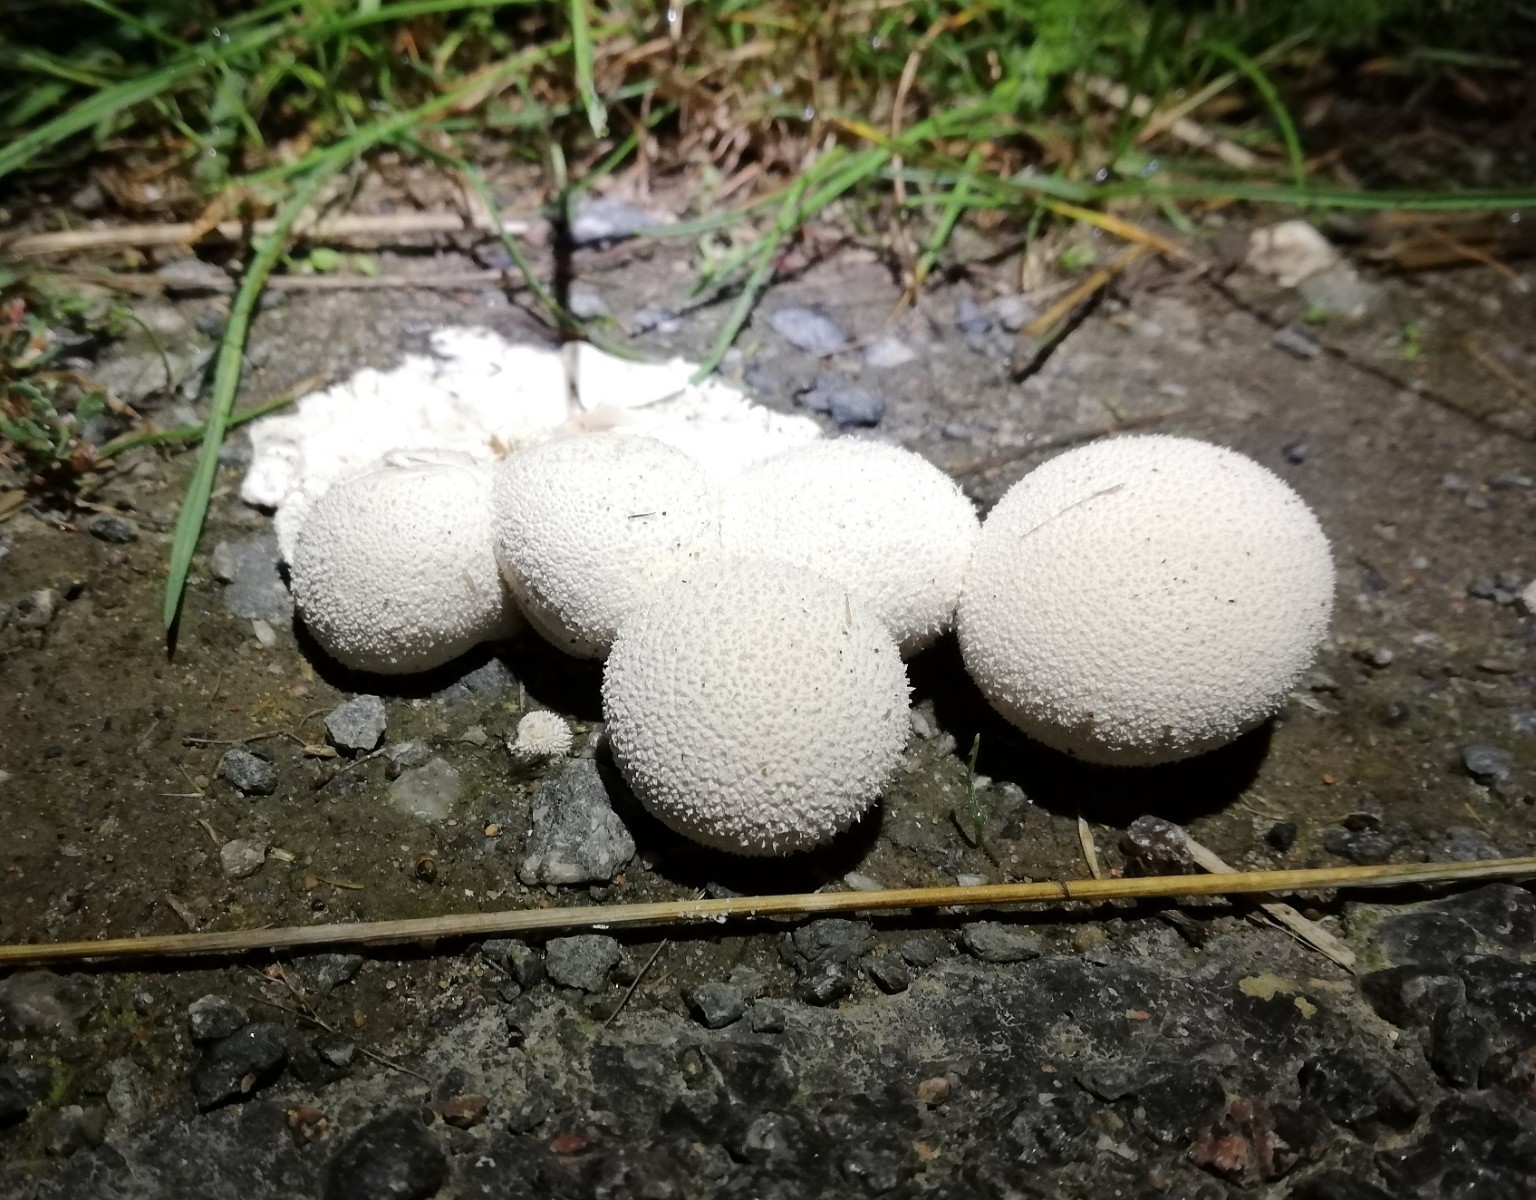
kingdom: Fungi
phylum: Basidiomycota
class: Agaricomycetes
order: Agaricales
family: Agaricaceae
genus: Lycoperdon
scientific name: Lycoperdon
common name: støvbold
